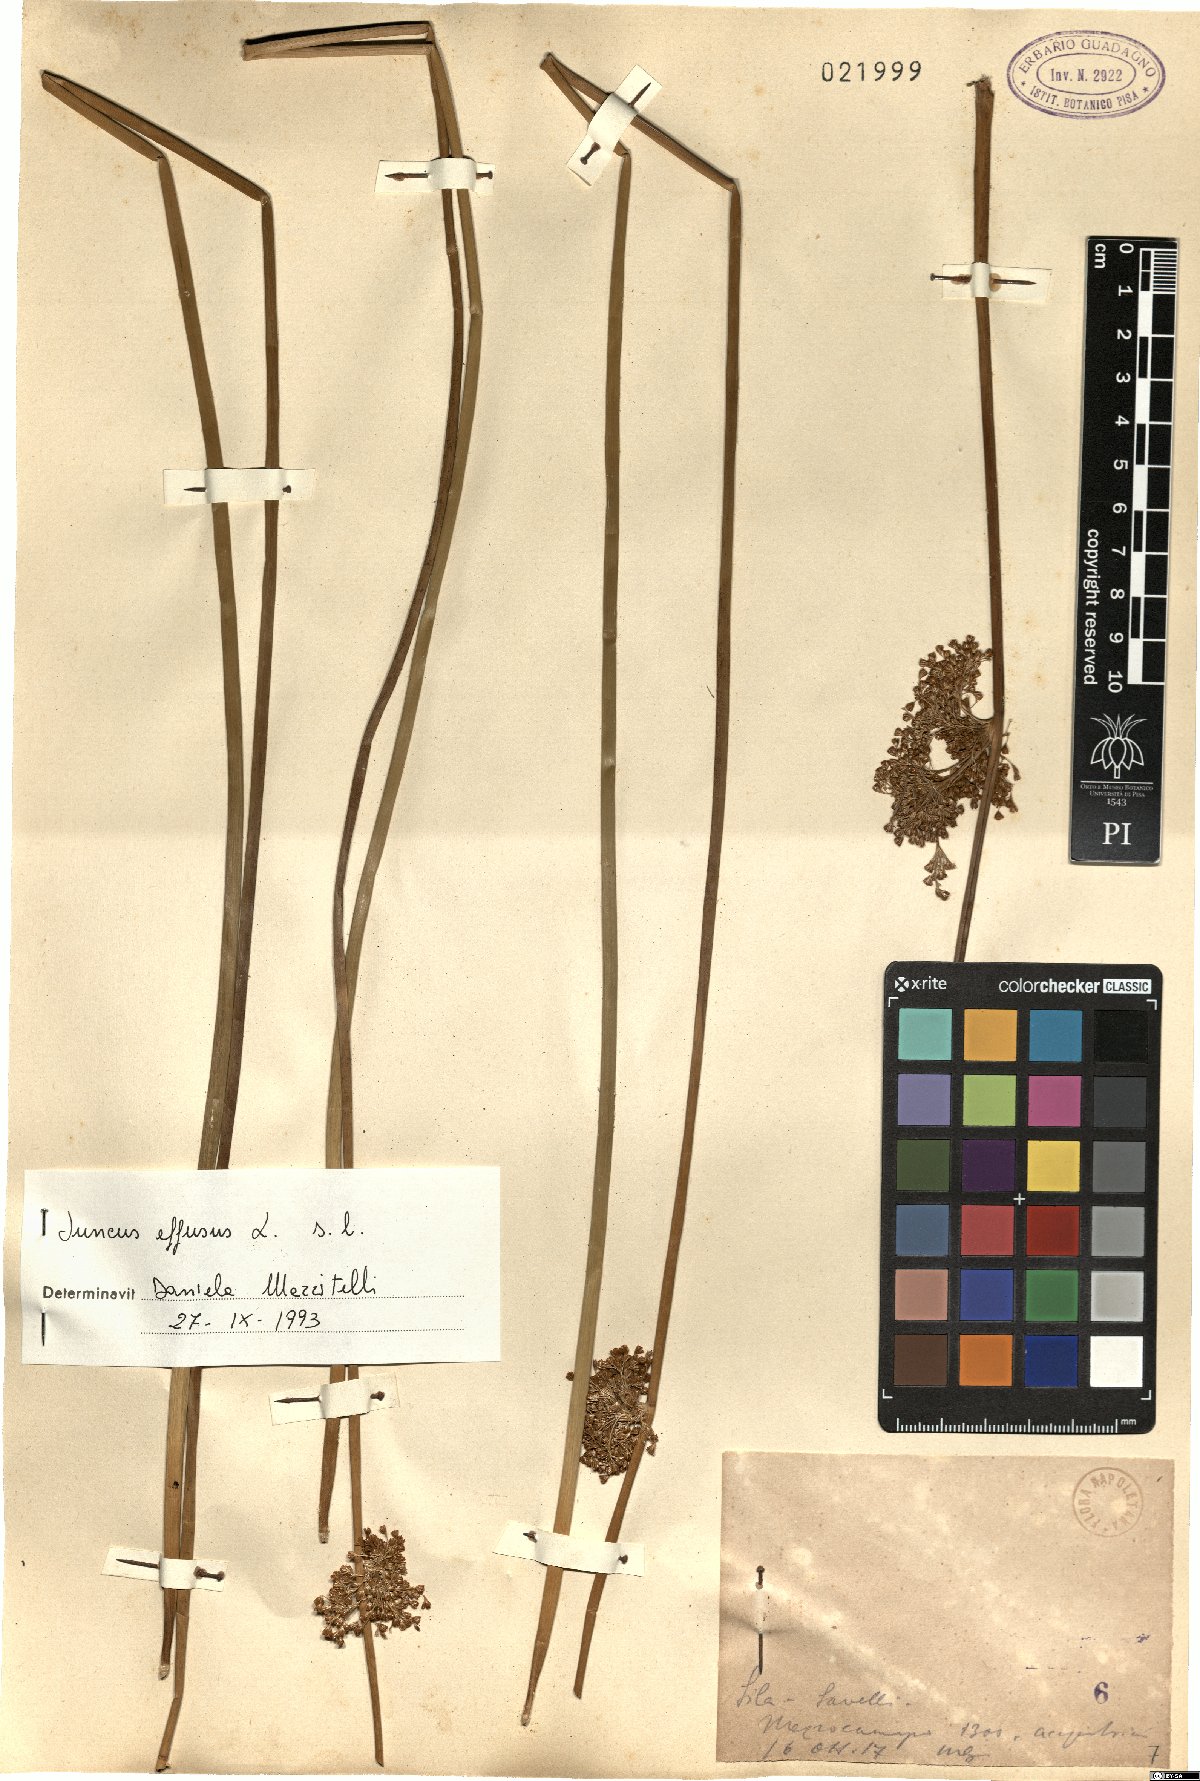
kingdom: Plantae
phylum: Tracheophyta
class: Liliopsida
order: Poales
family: Juncaceae
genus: Juncus
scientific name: Juncus effusus
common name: Soft rush
